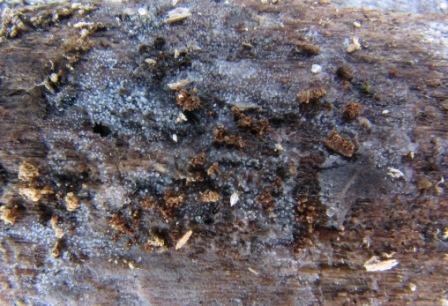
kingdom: Fungi
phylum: Basidiomycota
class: Pucciniomycetes
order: Platygloeales
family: Platygloeaceae
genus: Achroomyces
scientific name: Achroomyces insignis
